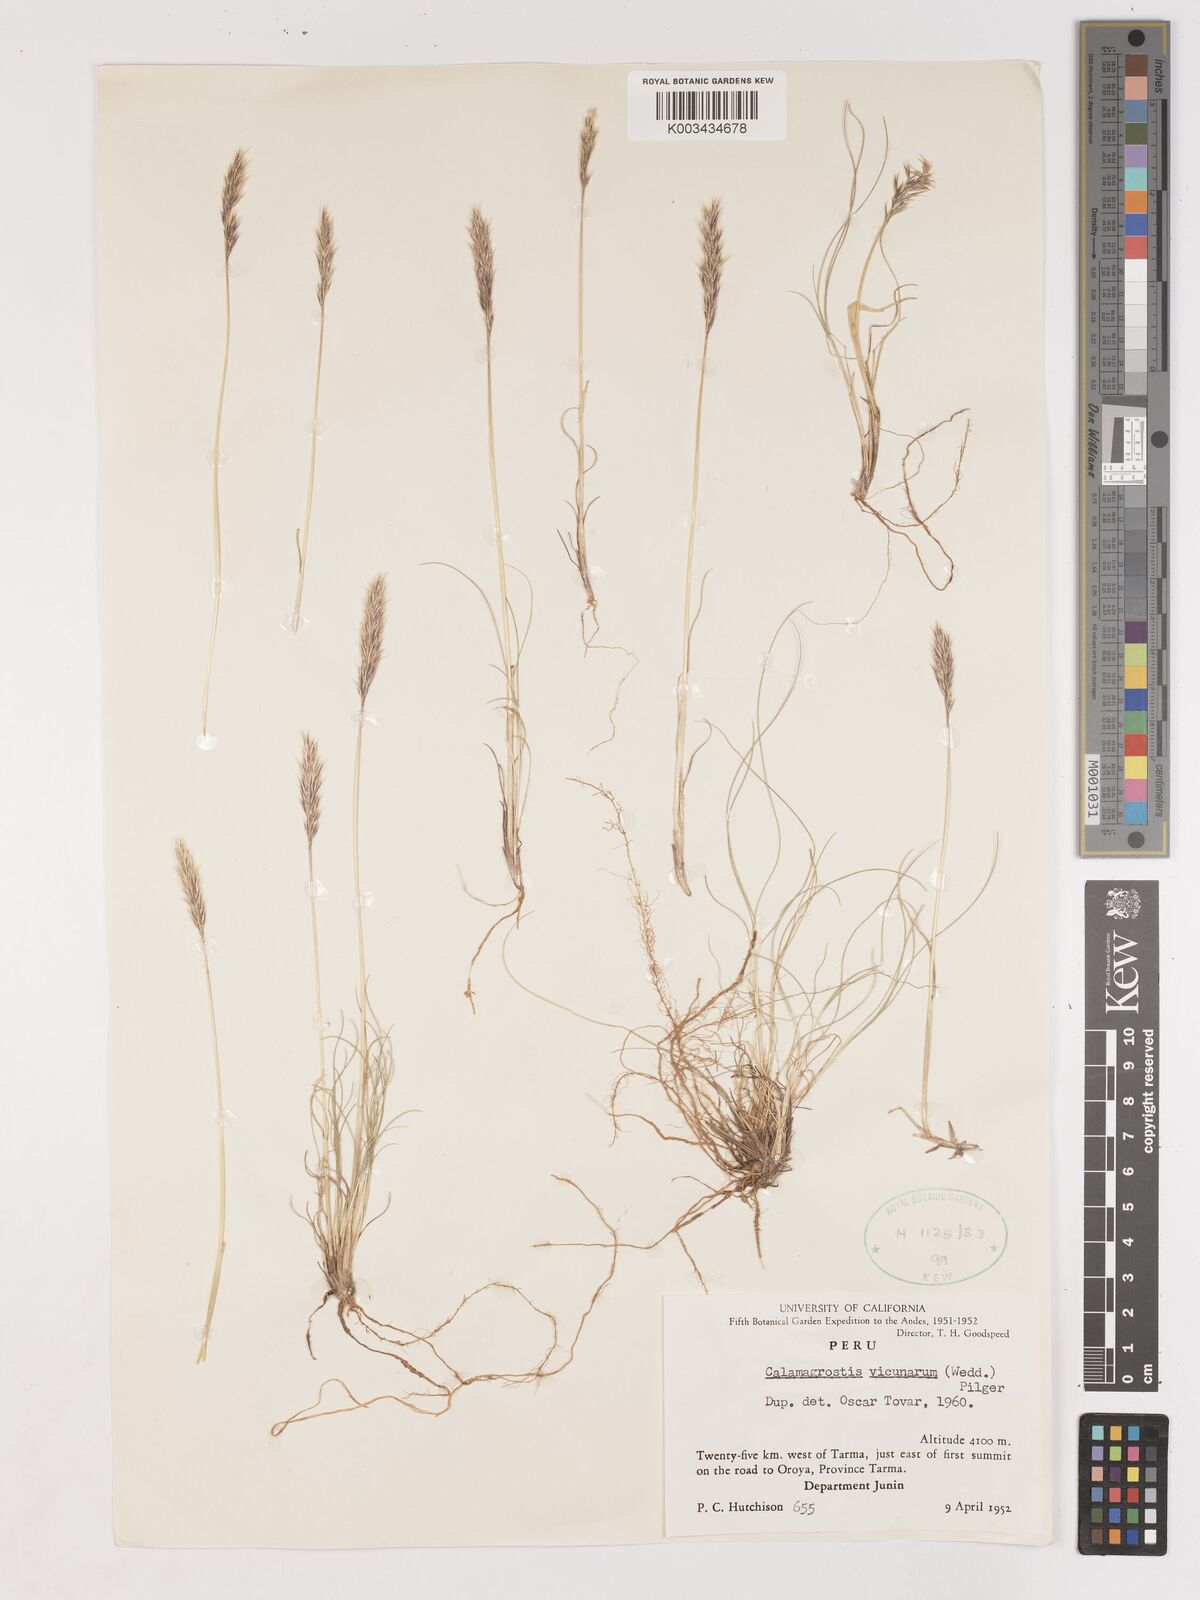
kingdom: Plantae
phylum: Tracheophyta
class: Liliopsida
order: Poales
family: Poaceae
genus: Cinnagrostis
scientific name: Cinnagrostis vicunarum
